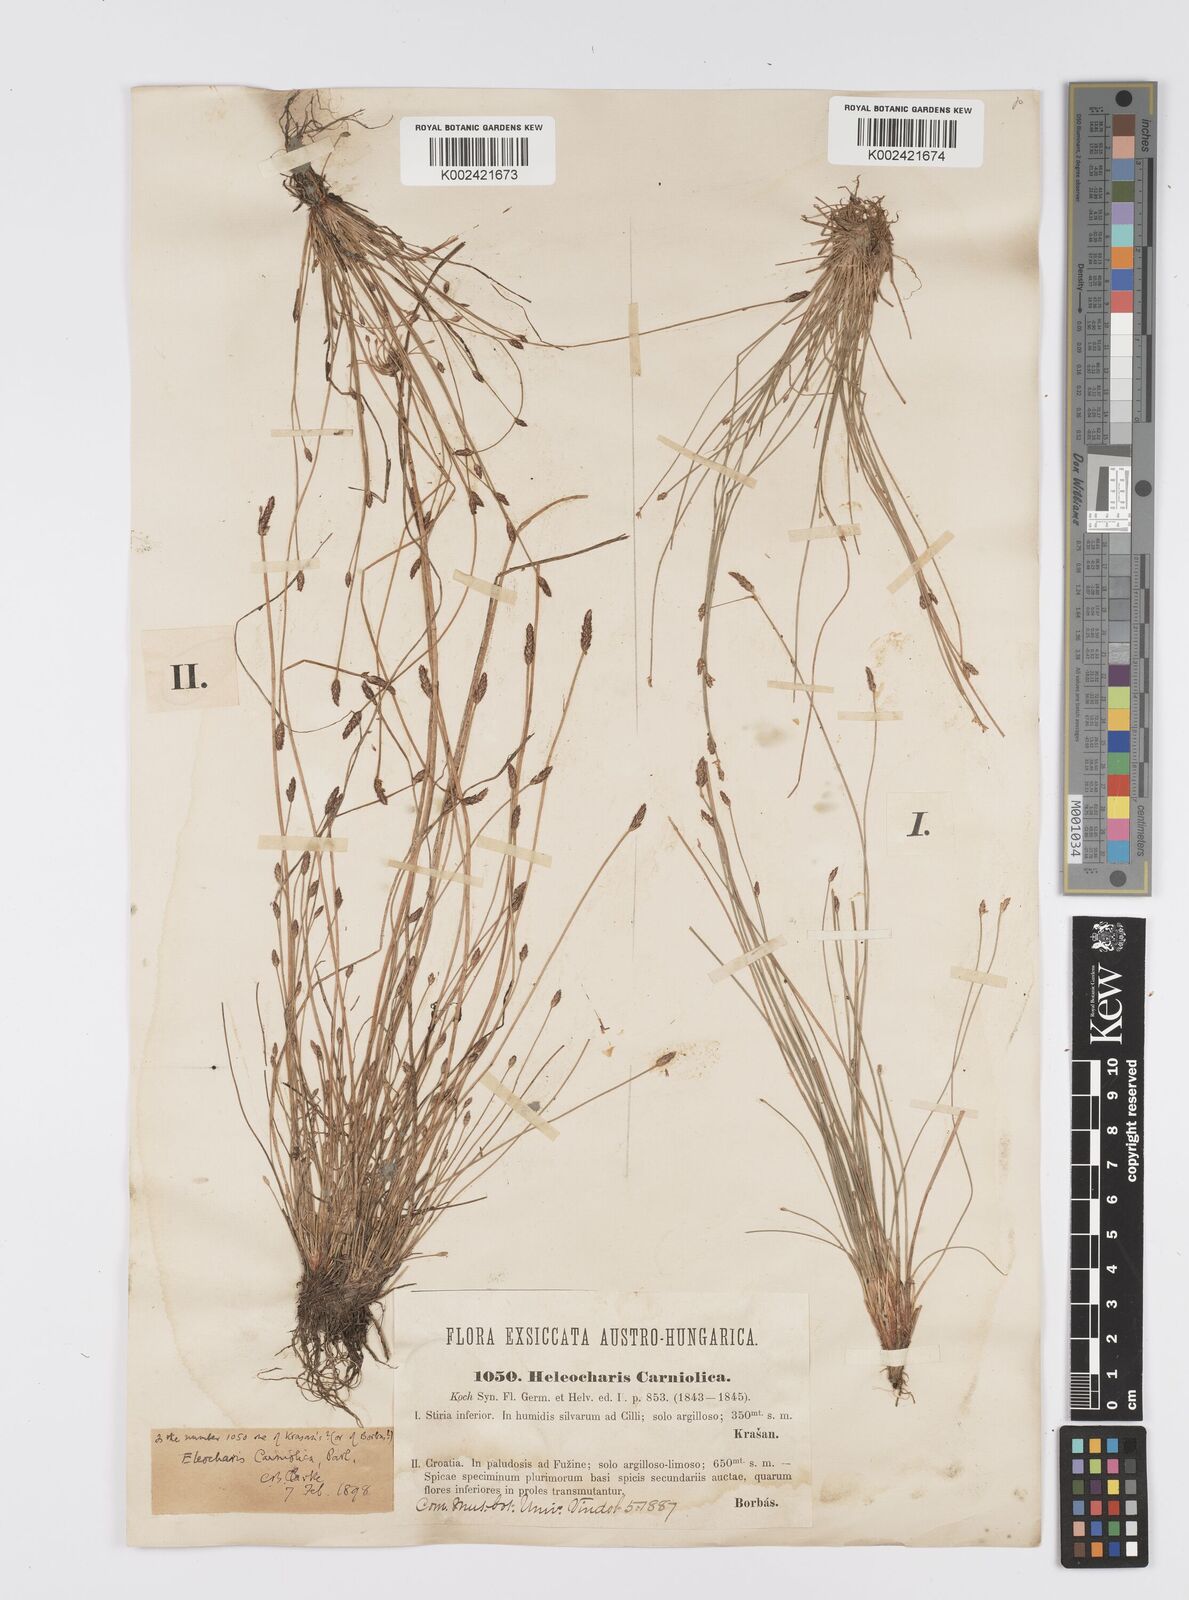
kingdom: Plantae
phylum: Tracheophyta
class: Liliopsida
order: Poales
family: Cyperaceae
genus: Eleocharis
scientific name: Eleocharis carniolica
